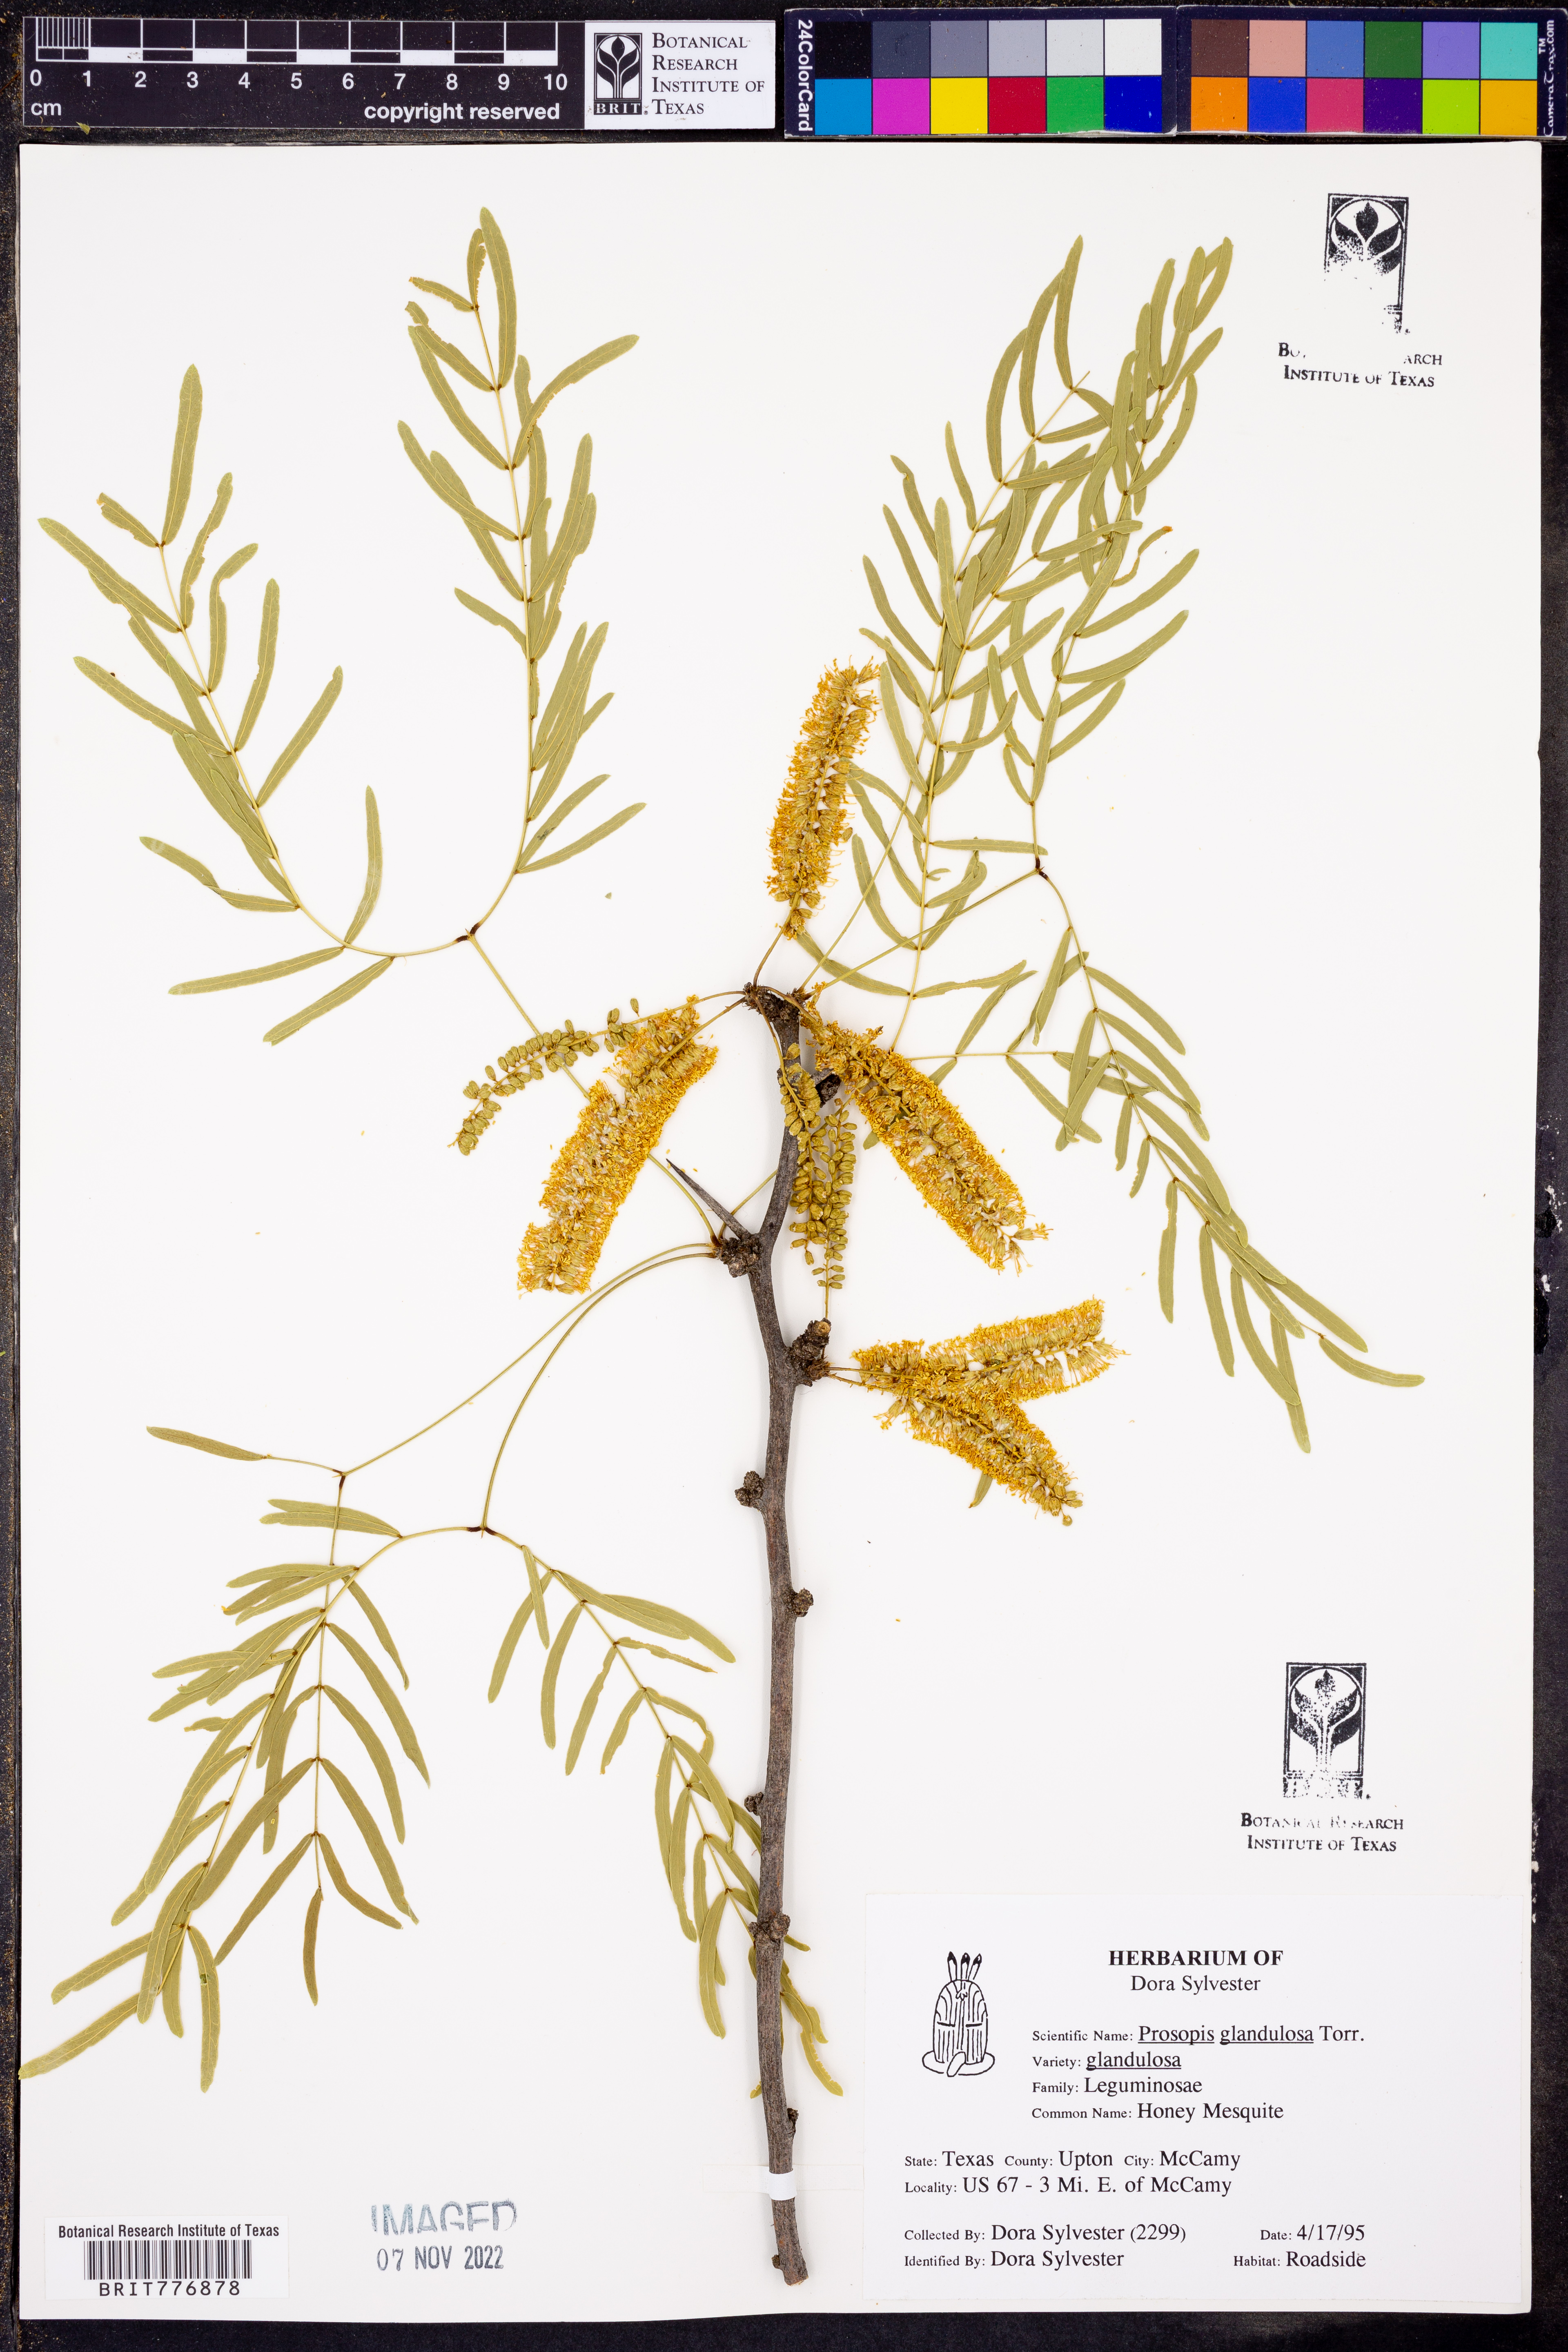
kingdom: Plantae
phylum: Tracheophyta
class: Magnoliopsida
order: Fabales
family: Fabaceae
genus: Prosopis
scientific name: Prosopis glandulosa
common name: Honey mesquite
